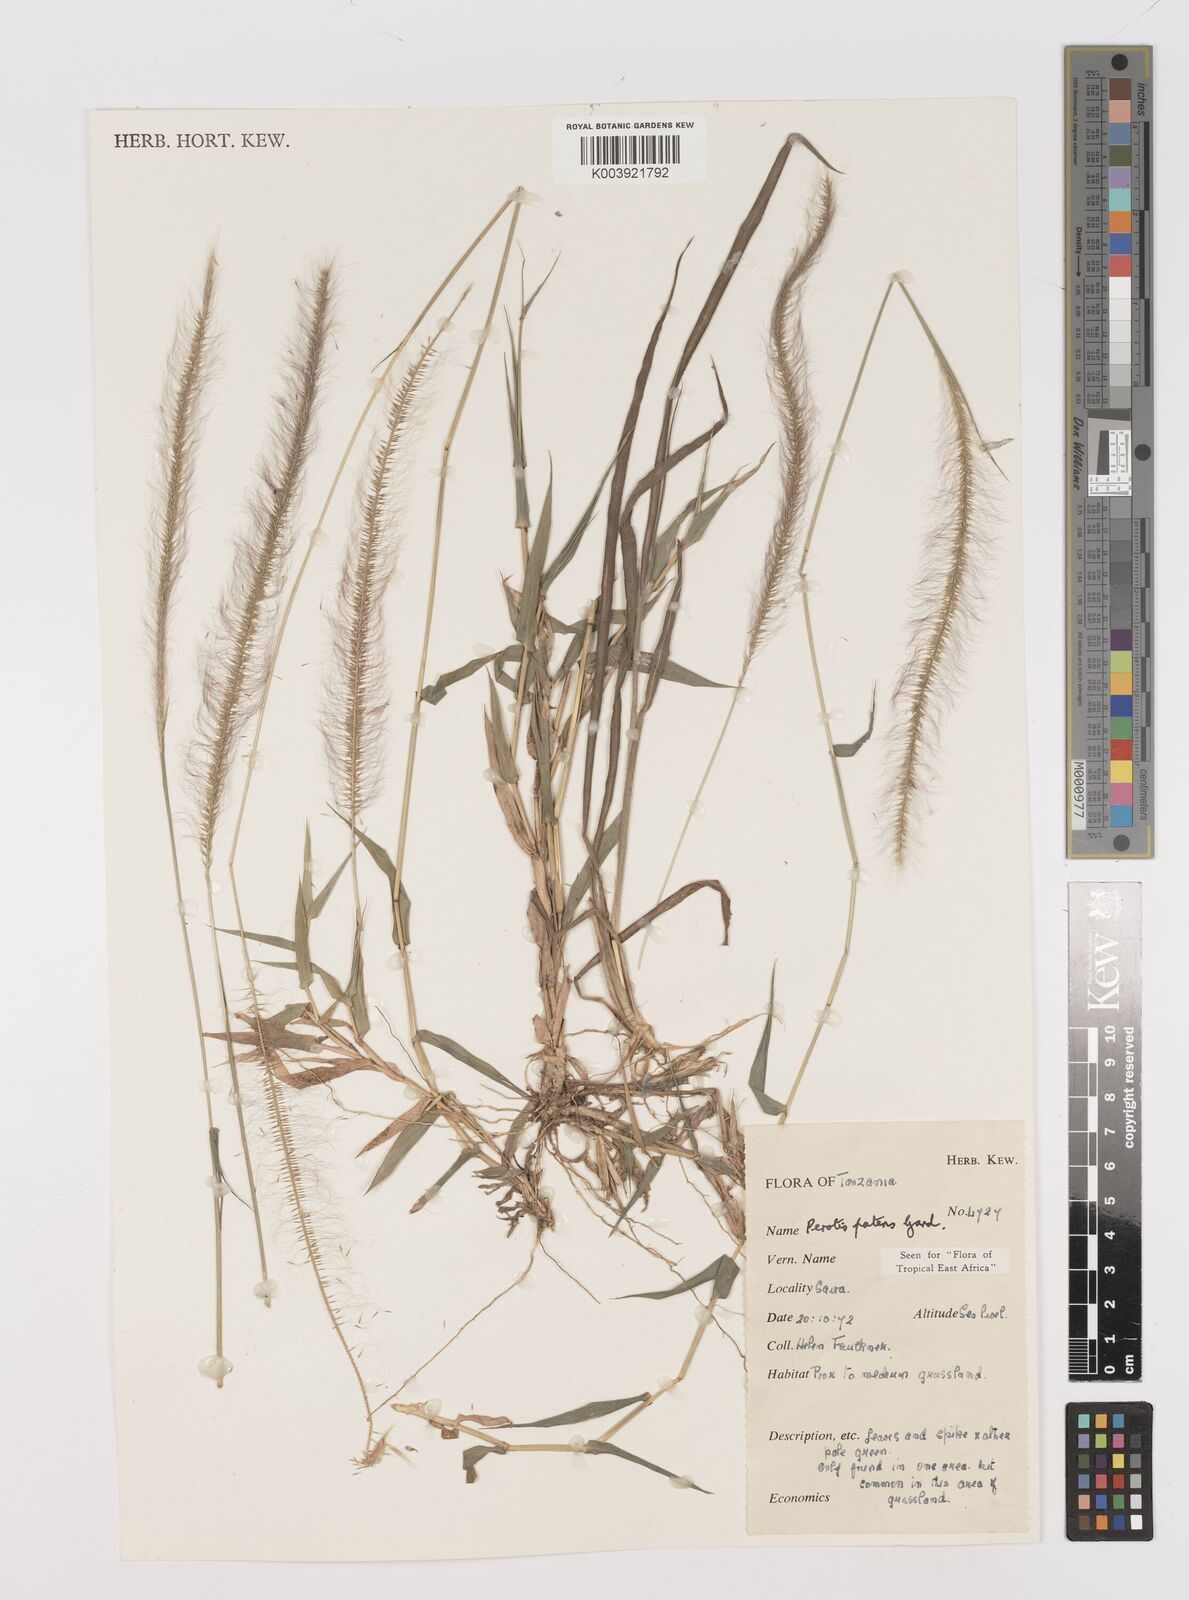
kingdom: Plantae
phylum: Tracheophyta
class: Liliopsida
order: Poales
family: Poaceae
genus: Perotis
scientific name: Perotis patens
